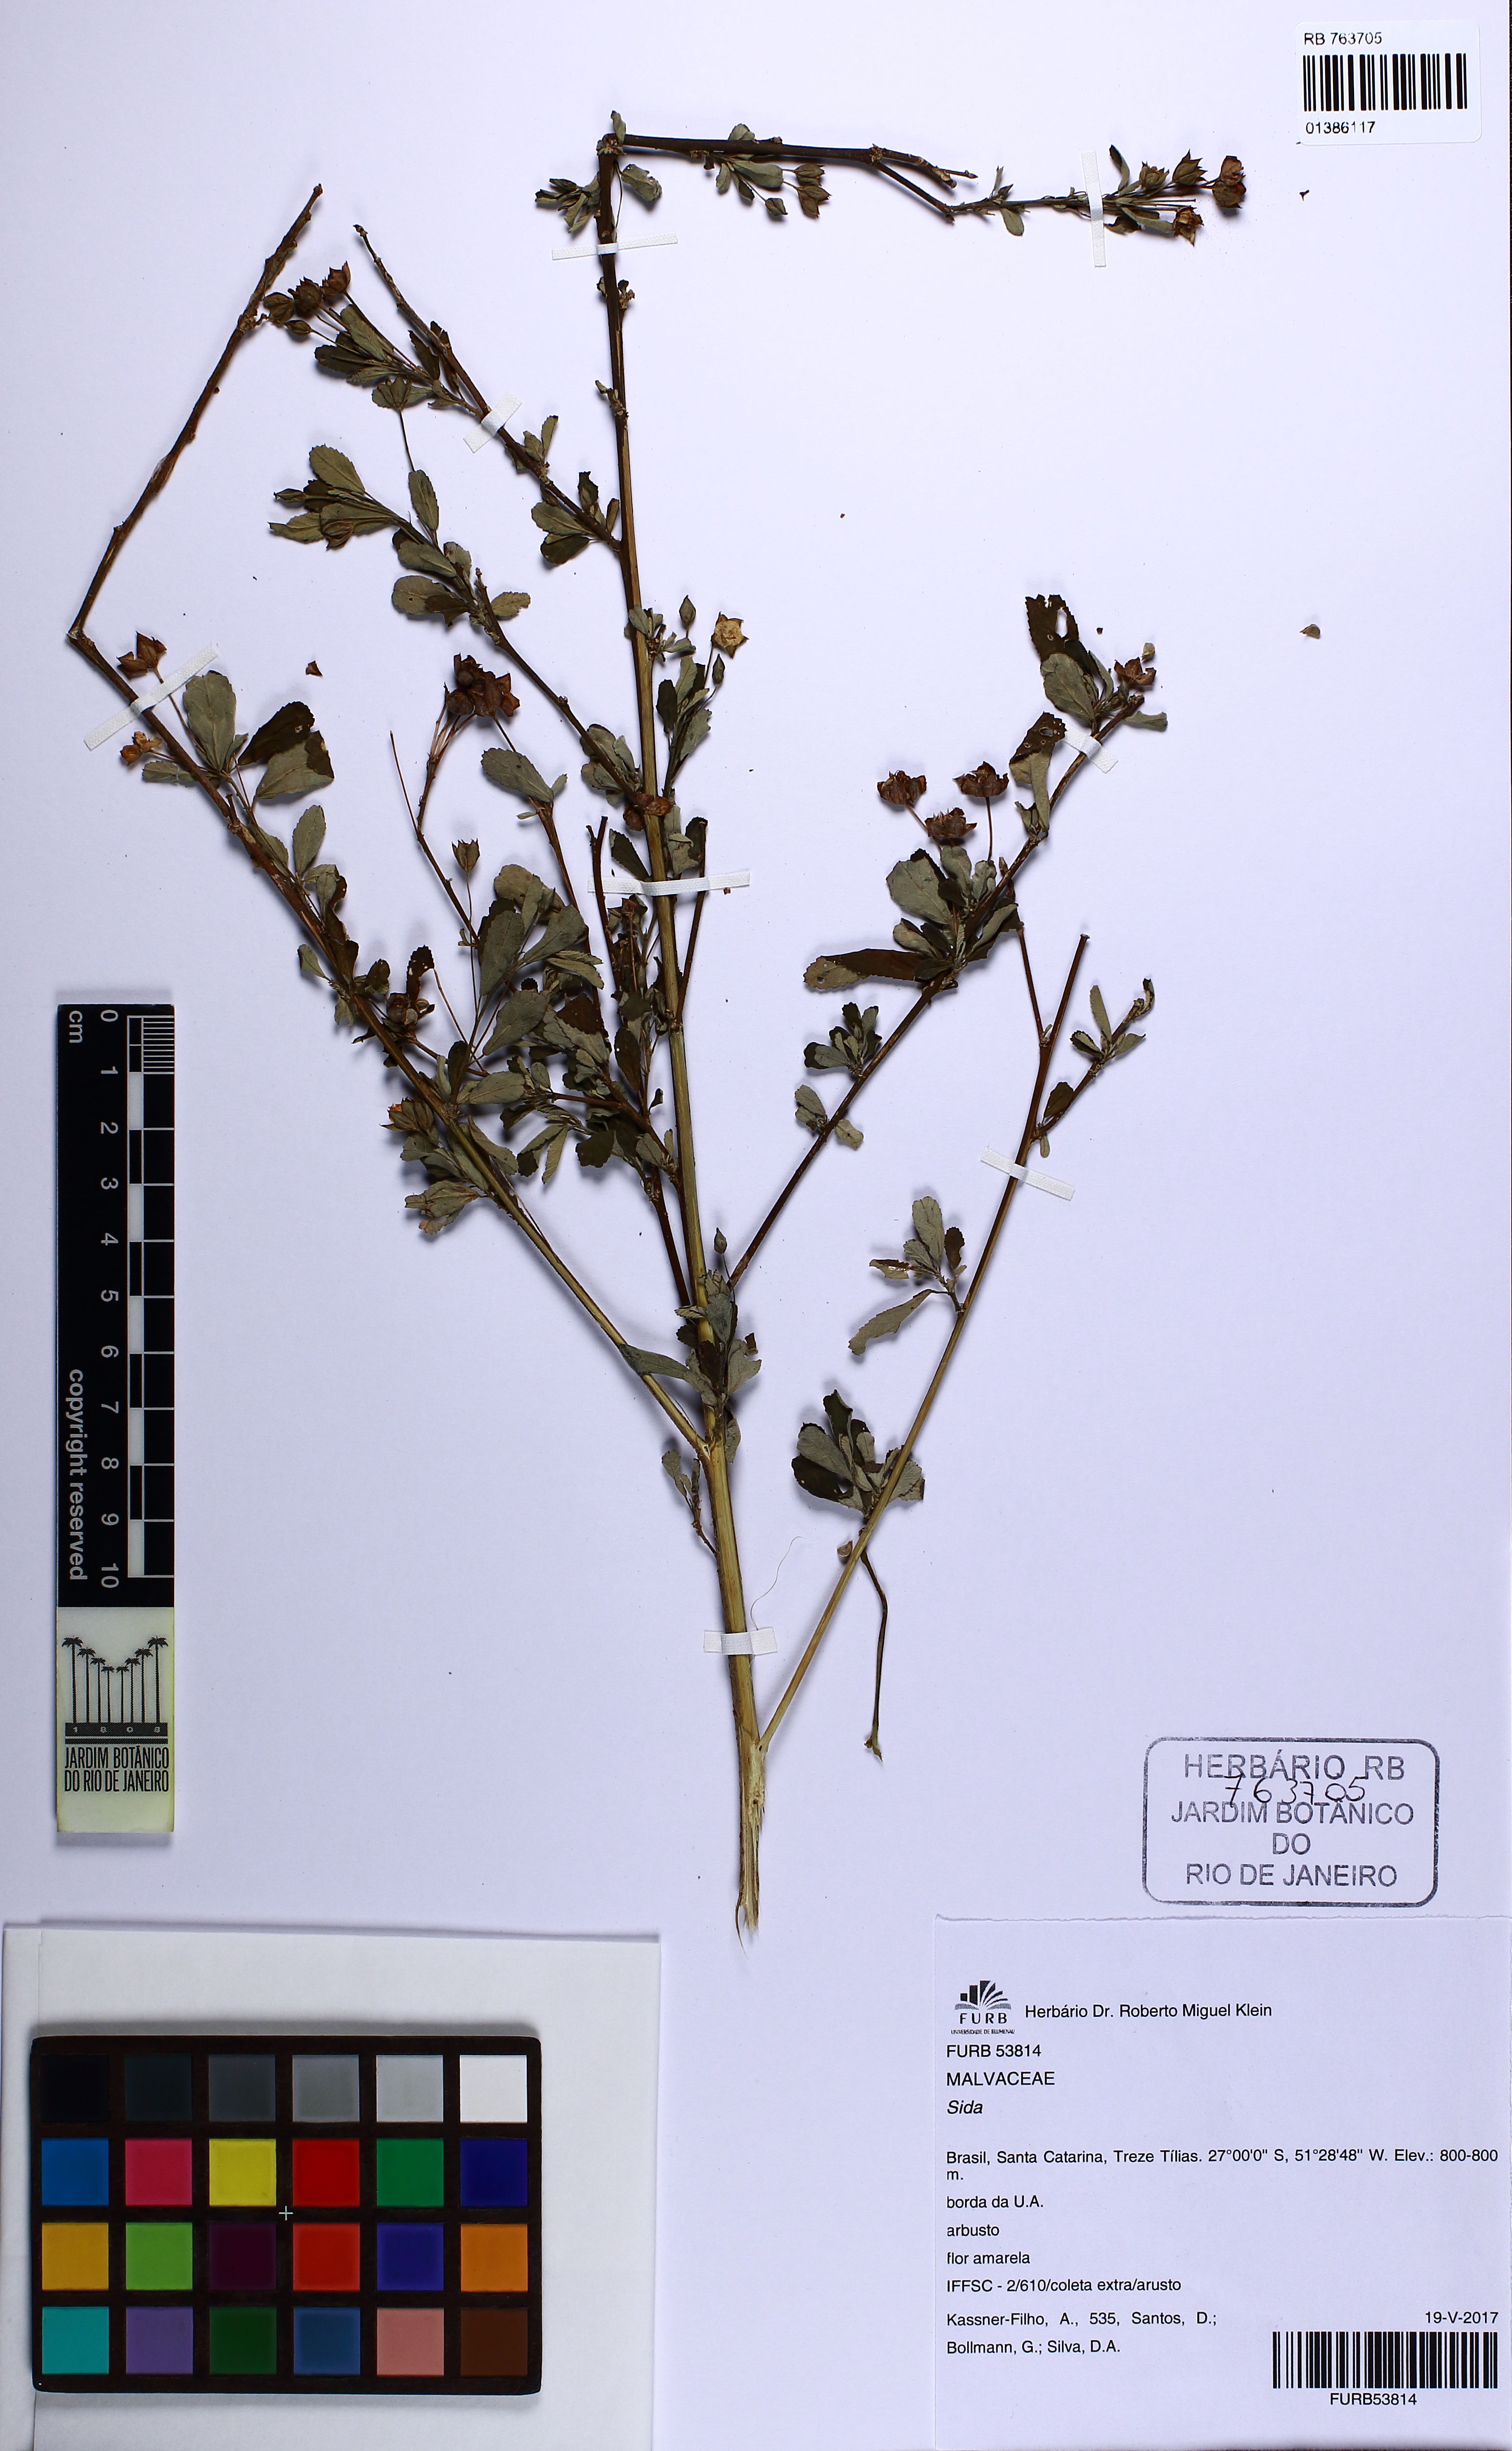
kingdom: Plantae
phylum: Tracheophyta
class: Magnoliopsida
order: Malvales
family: Malvaceae
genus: Sida
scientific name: Sida rhombifolia
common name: Queensland-hemp
